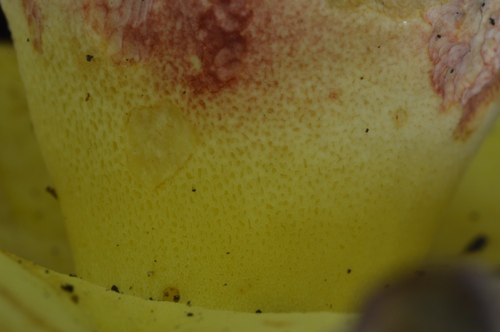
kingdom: Fungi
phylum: Basidiomycota
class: Agaricomycetes
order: Boletales
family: Boletaceae
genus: Butyriboletus
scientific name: Butyriboletus fechtneri
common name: sølvskinnende rørhat
